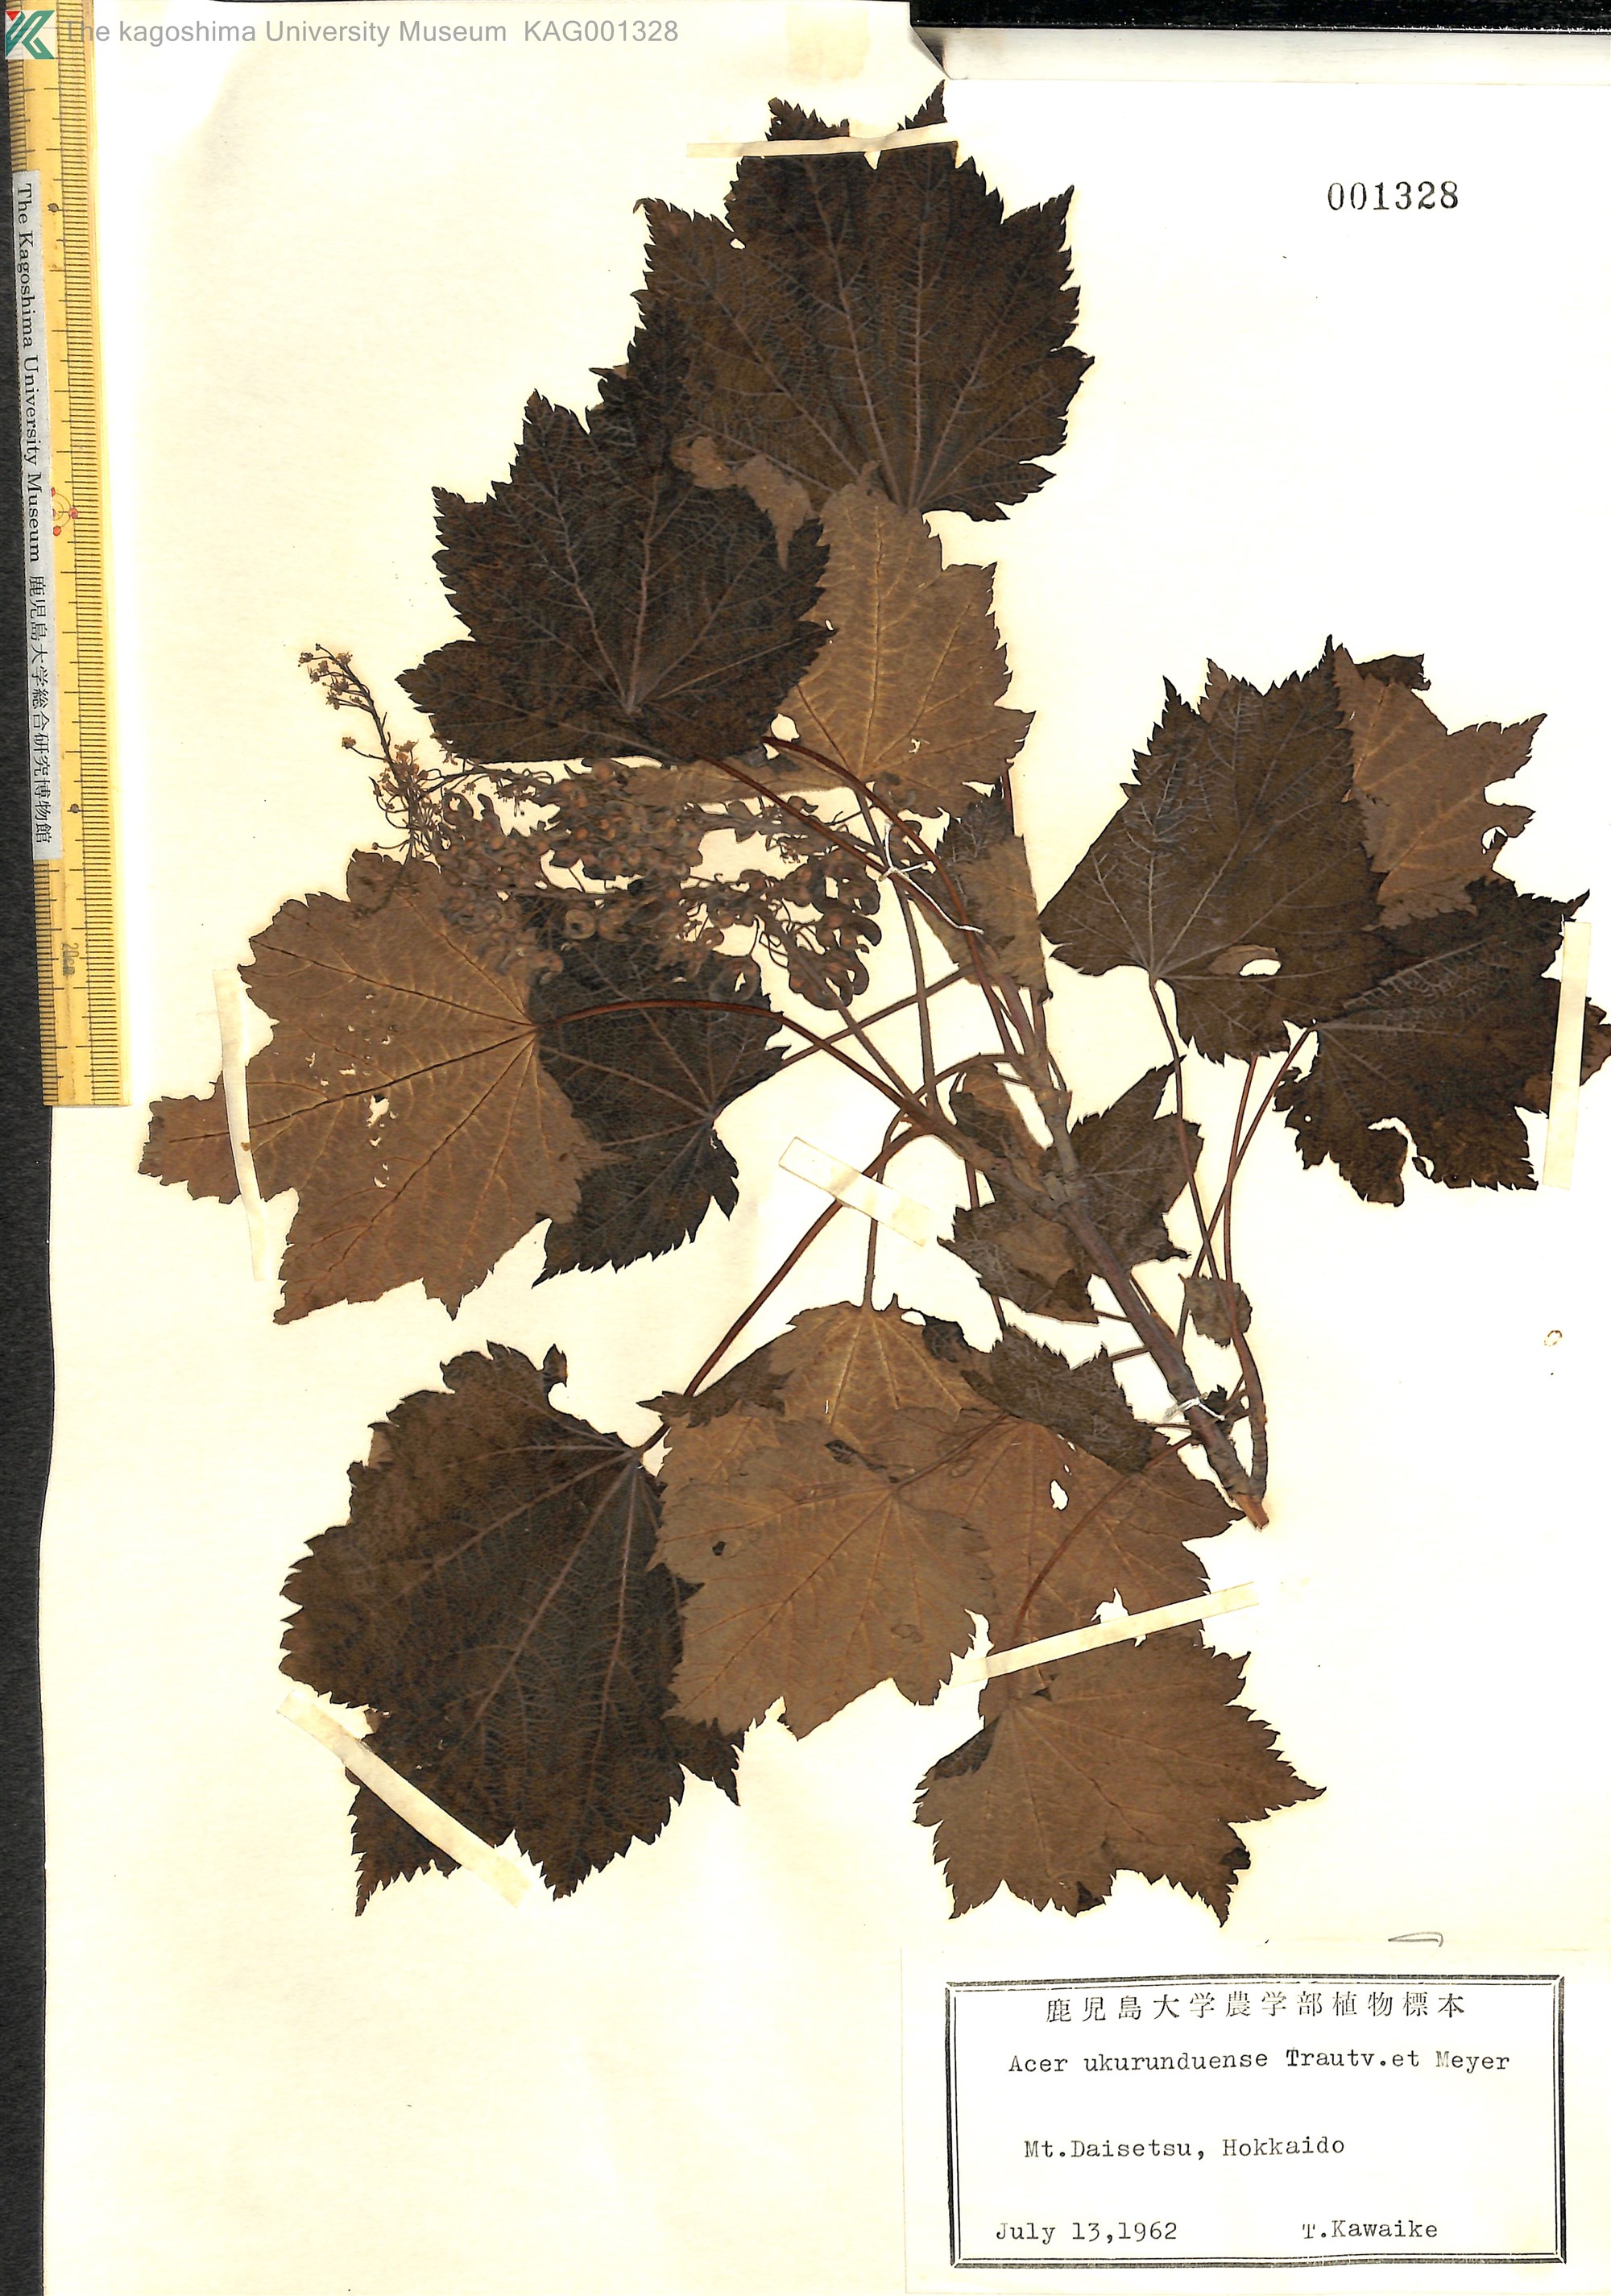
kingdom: Plantae
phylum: Tracheophyta
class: Magnoliopsida
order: Sapindales
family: Sapindaceae
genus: Acer
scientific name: Acer ukurunduense
